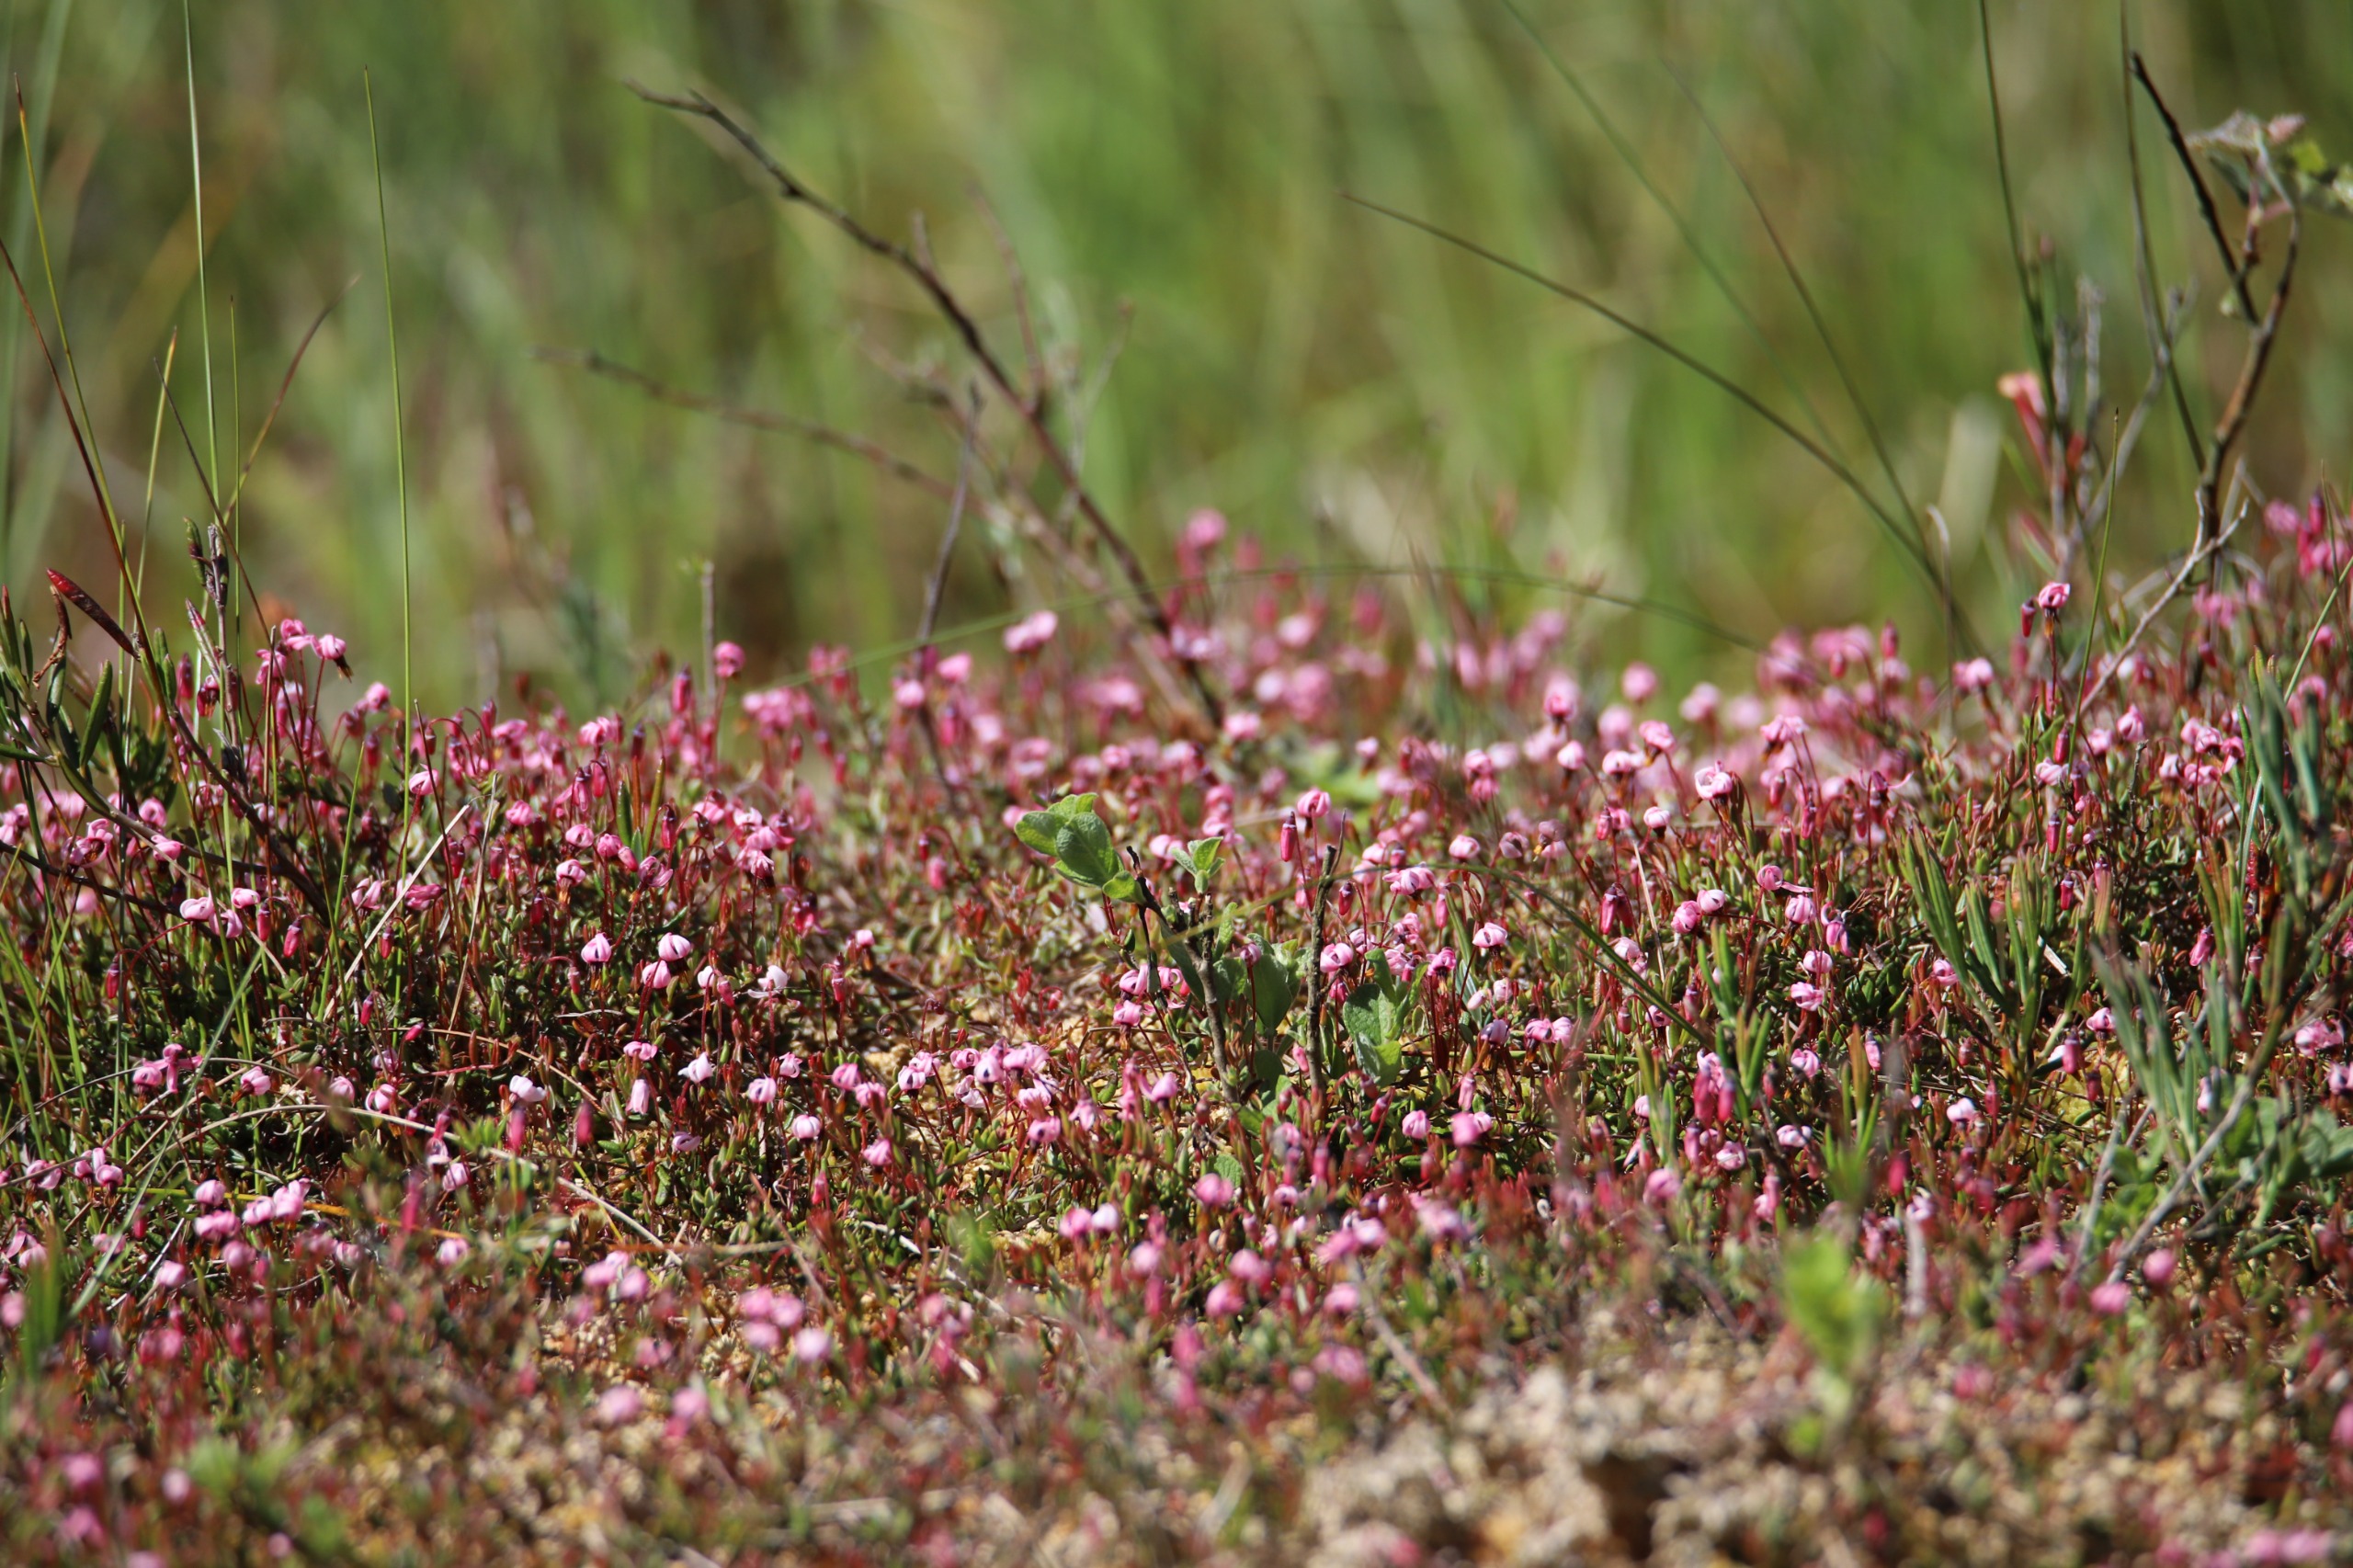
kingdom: Plantae
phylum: Tracheophyta
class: Magnoliopsida
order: Ericales
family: Ericaceae
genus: Vaccinium
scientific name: Vaccinium oxycoccos
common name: Tranebær
